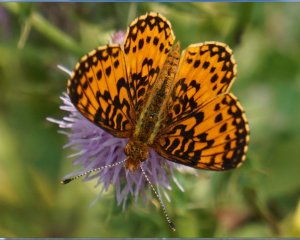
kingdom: Animalia
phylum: Arthropoda
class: Insecta
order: Lepidoptera
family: Nymphalidae
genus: Boloria
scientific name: Boloria selene
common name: Silver-bordered Fritillary
